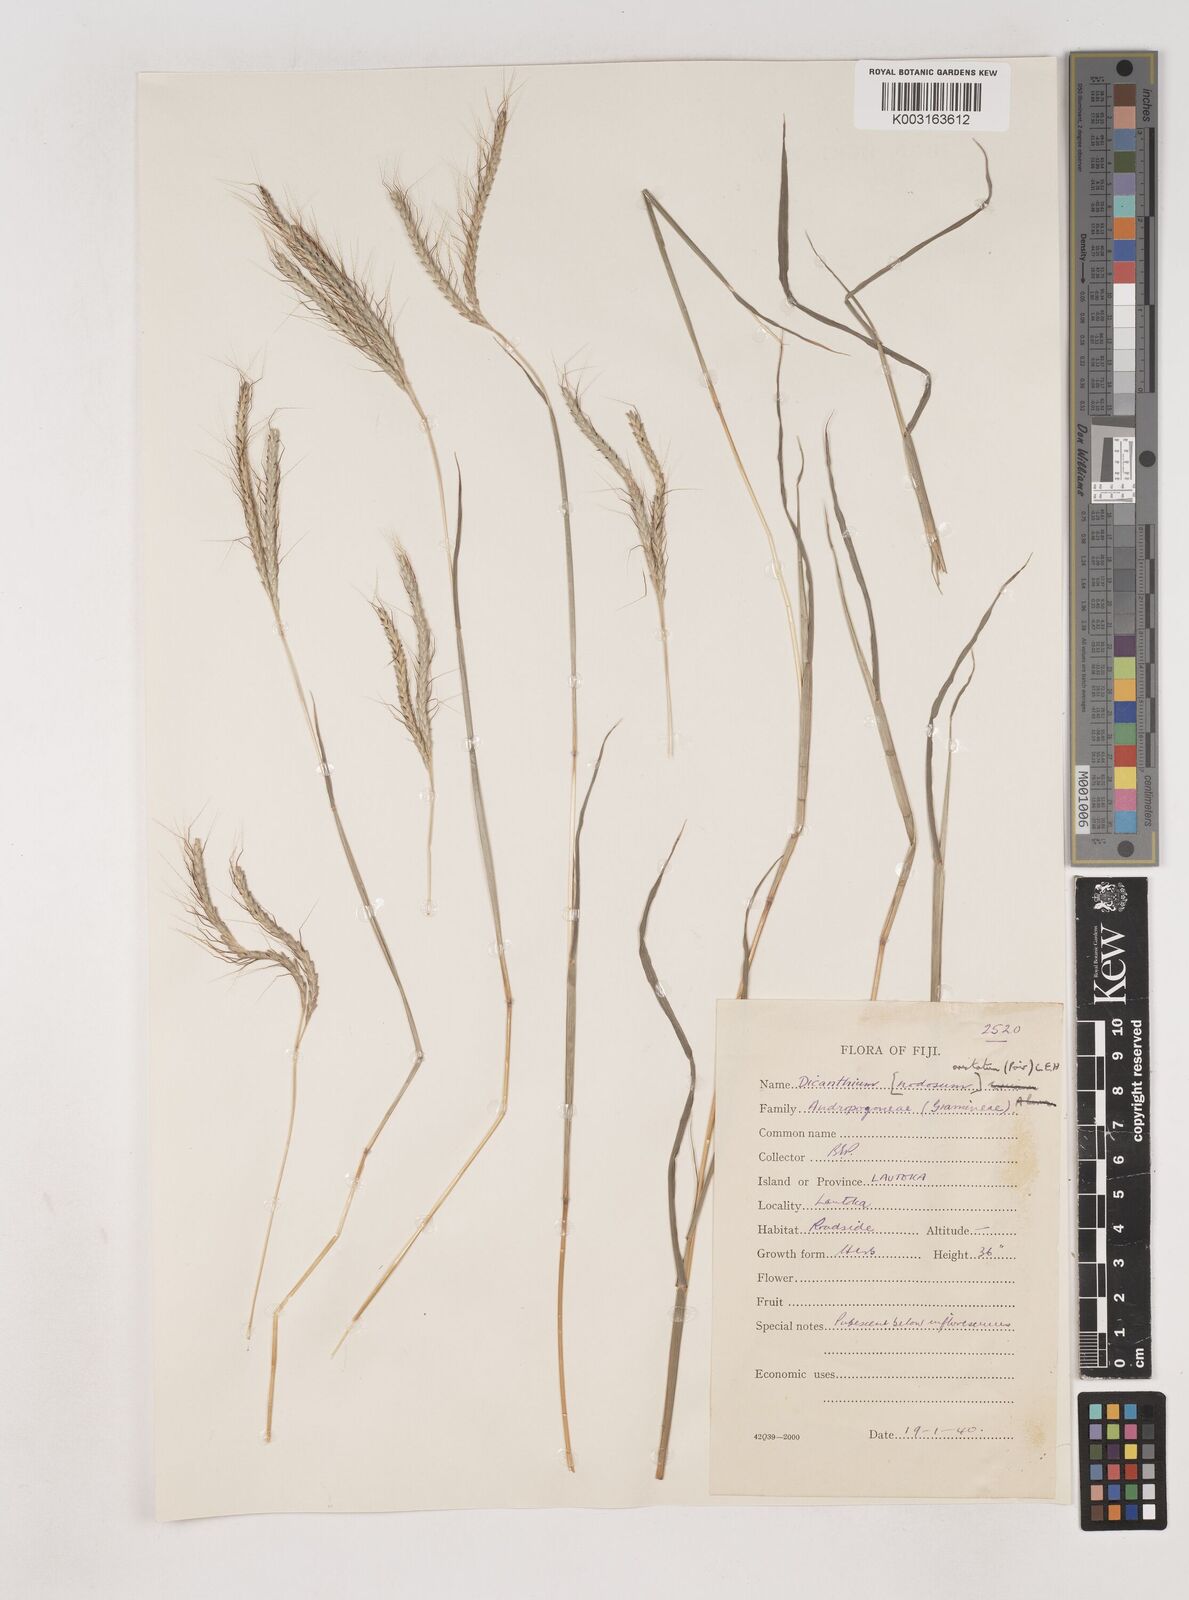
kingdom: Plantae
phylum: Tracheophyta
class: Liliopsida
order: Poales
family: Poaceae
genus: Dichanthium
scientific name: Dichanthium aristatum
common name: Angleton bluestem
